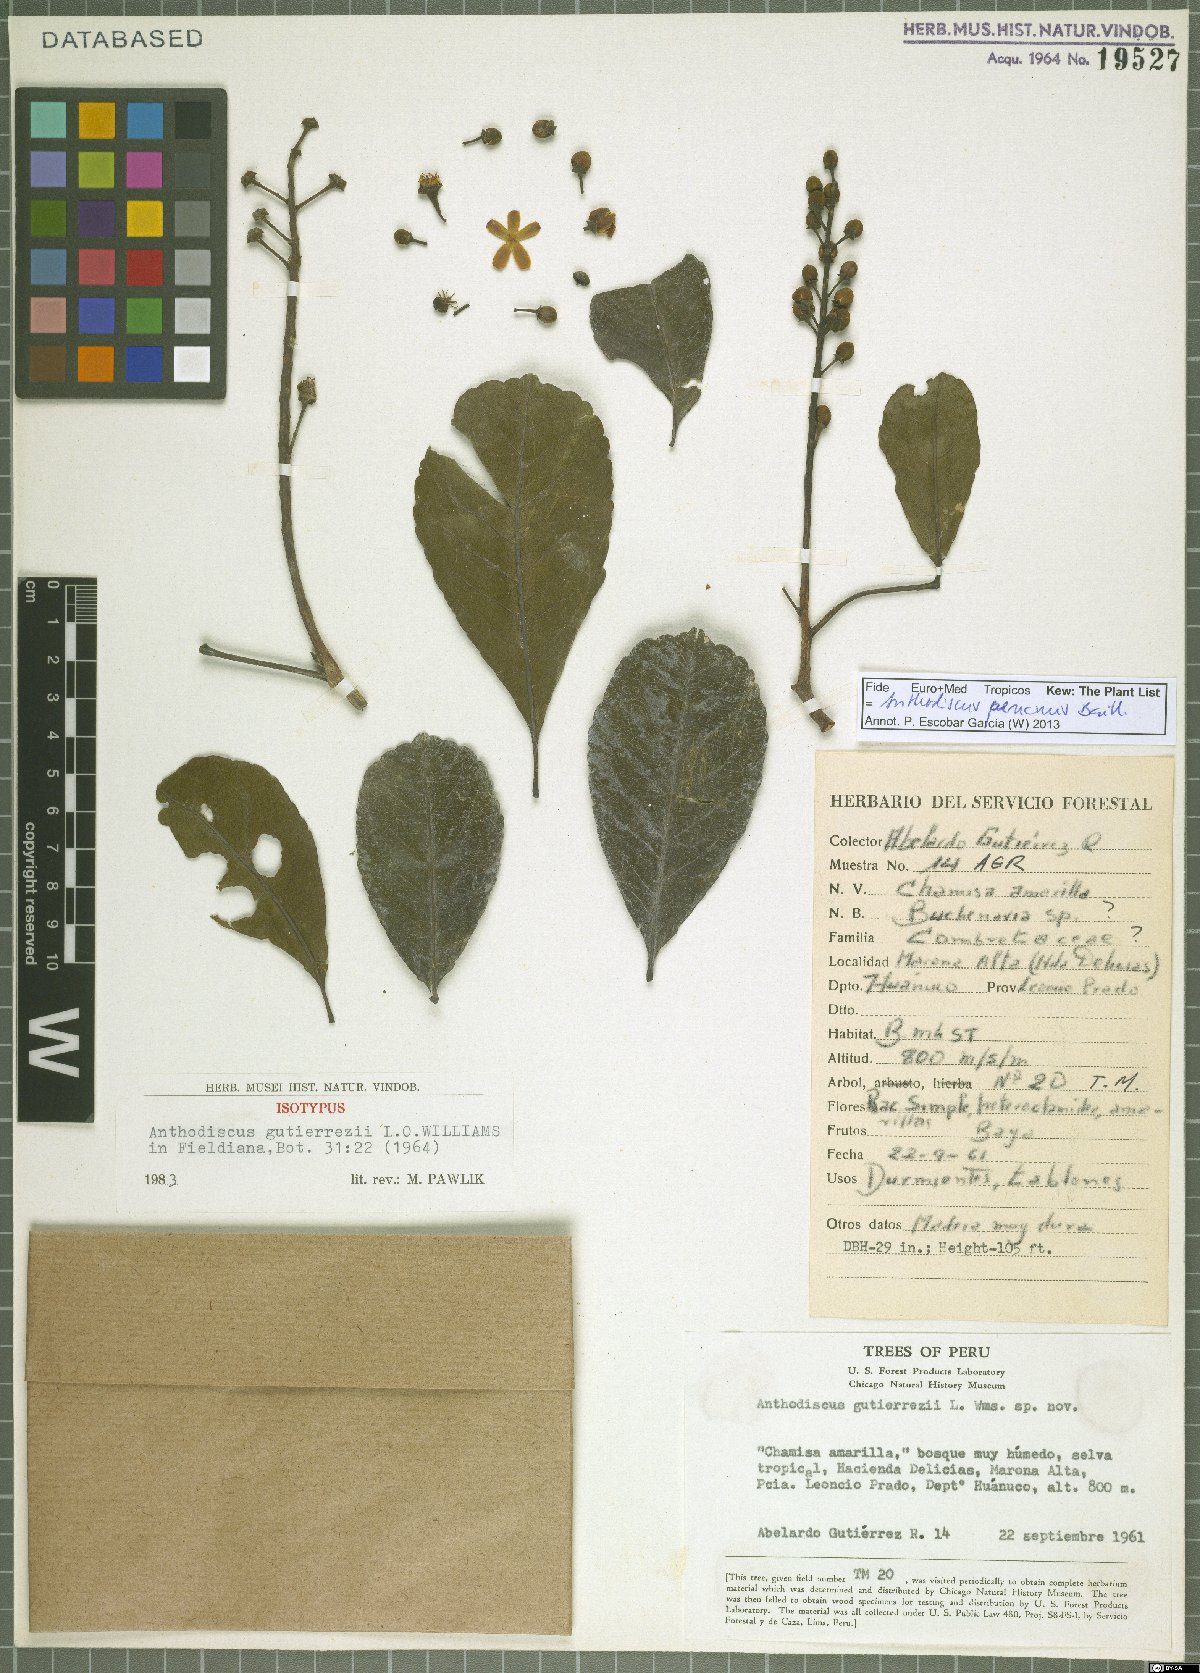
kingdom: Plantae
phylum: Tracheophyta
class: Magnoliopsida
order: Malpighiales
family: Caryocaraceae
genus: Anthodiscus
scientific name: Anthodiscus peruanus
